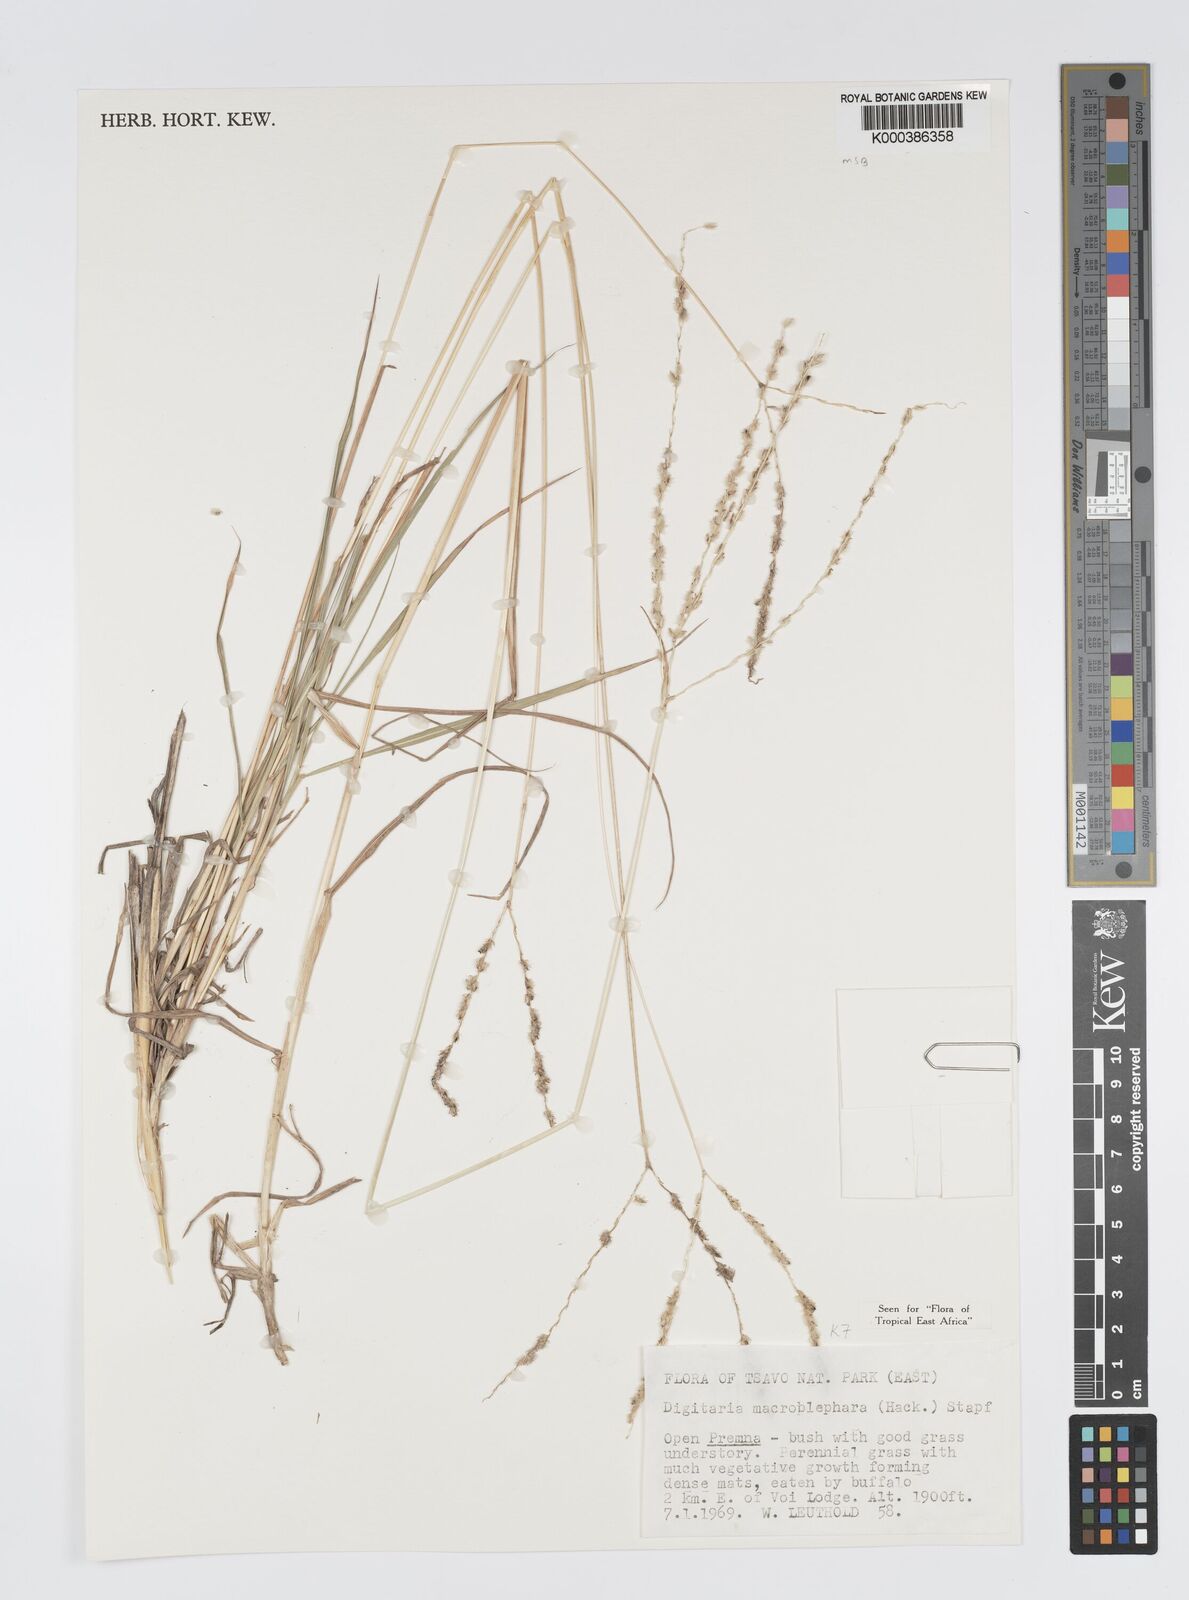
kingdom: Plantae
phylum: Tracheophyta
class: Liliopsida
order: Poales
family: Poaceae
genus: Digitaria
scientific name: Digitaria macroblephara
